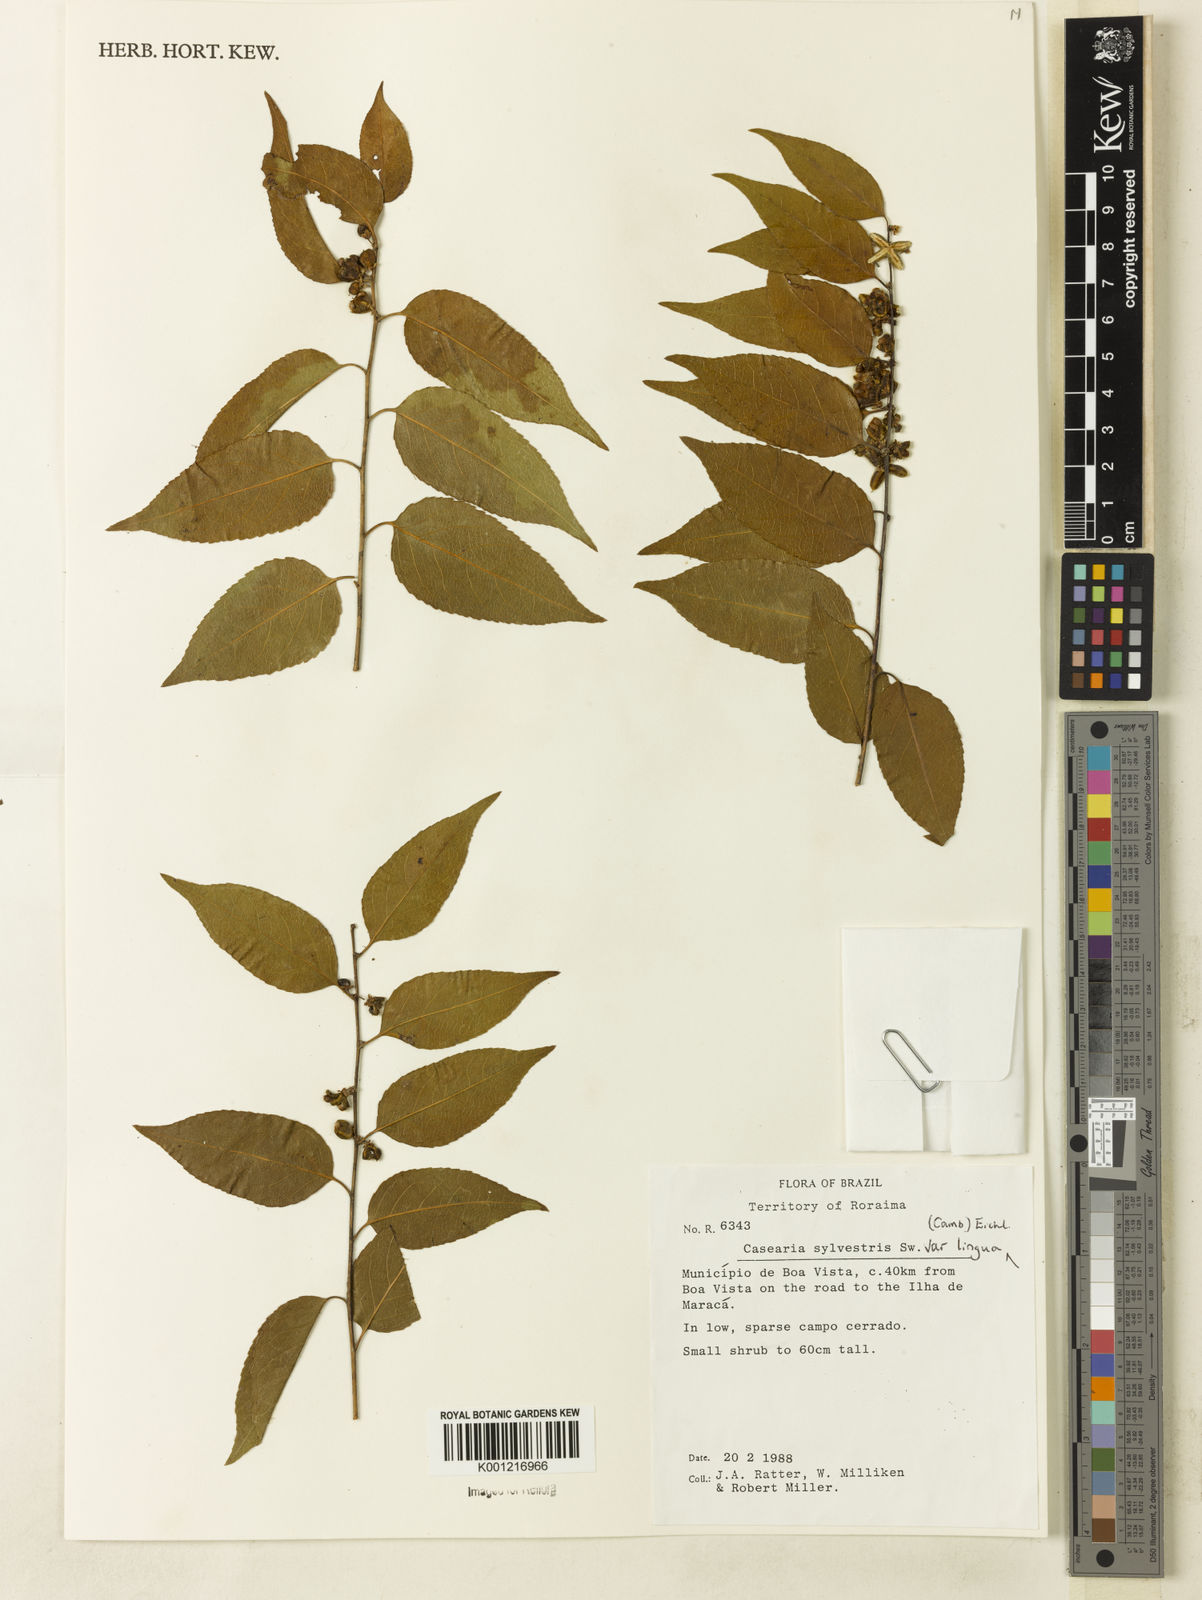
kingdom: Plantae
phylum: Tracheophyta
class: Magnoliopsida
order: Malpighiales
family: Salicaceae
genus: Casearia
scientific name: Casearia sylvestris
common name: Wild sage
